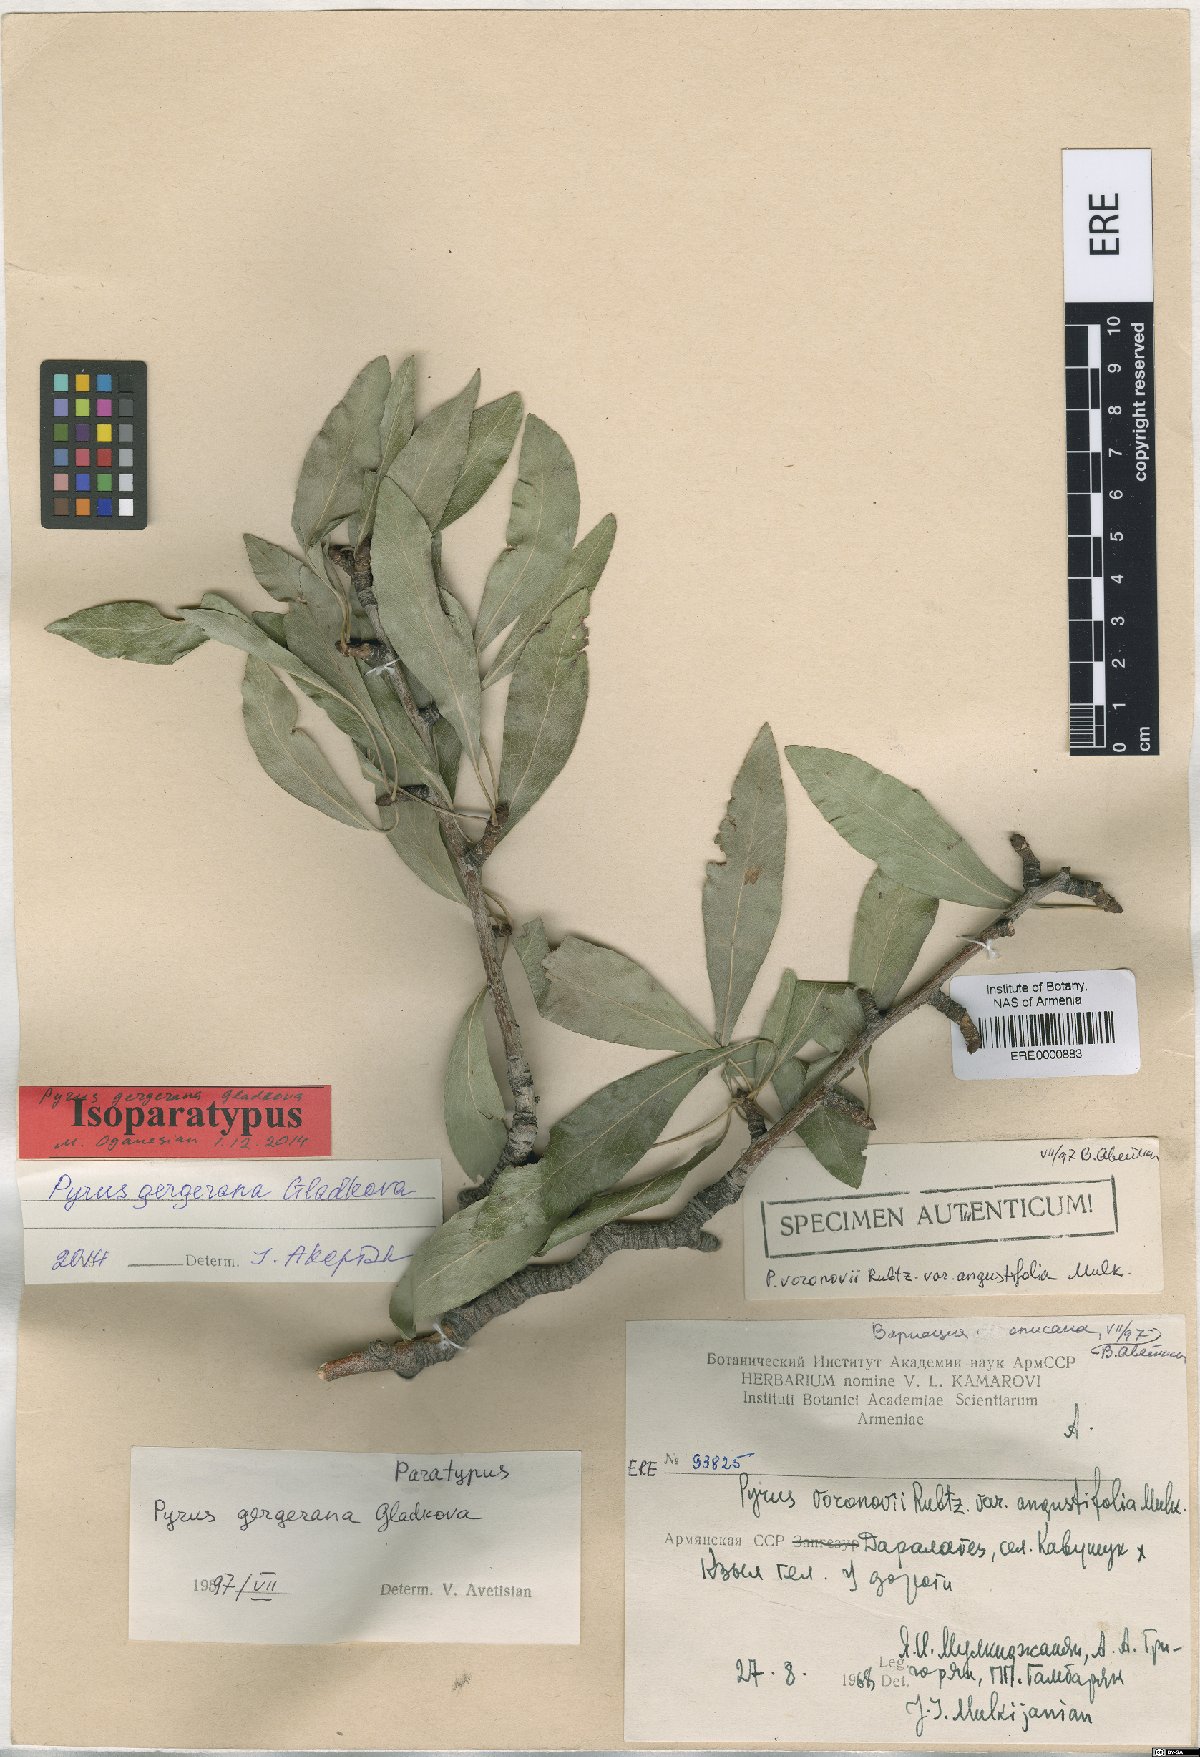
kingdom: Plantae
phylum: Tracheophyta
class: Magnoliopsida
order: Rosales
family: Rosaceae
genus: Pyrus
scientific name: Pyrus gergerana
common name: Gergeranian pear
